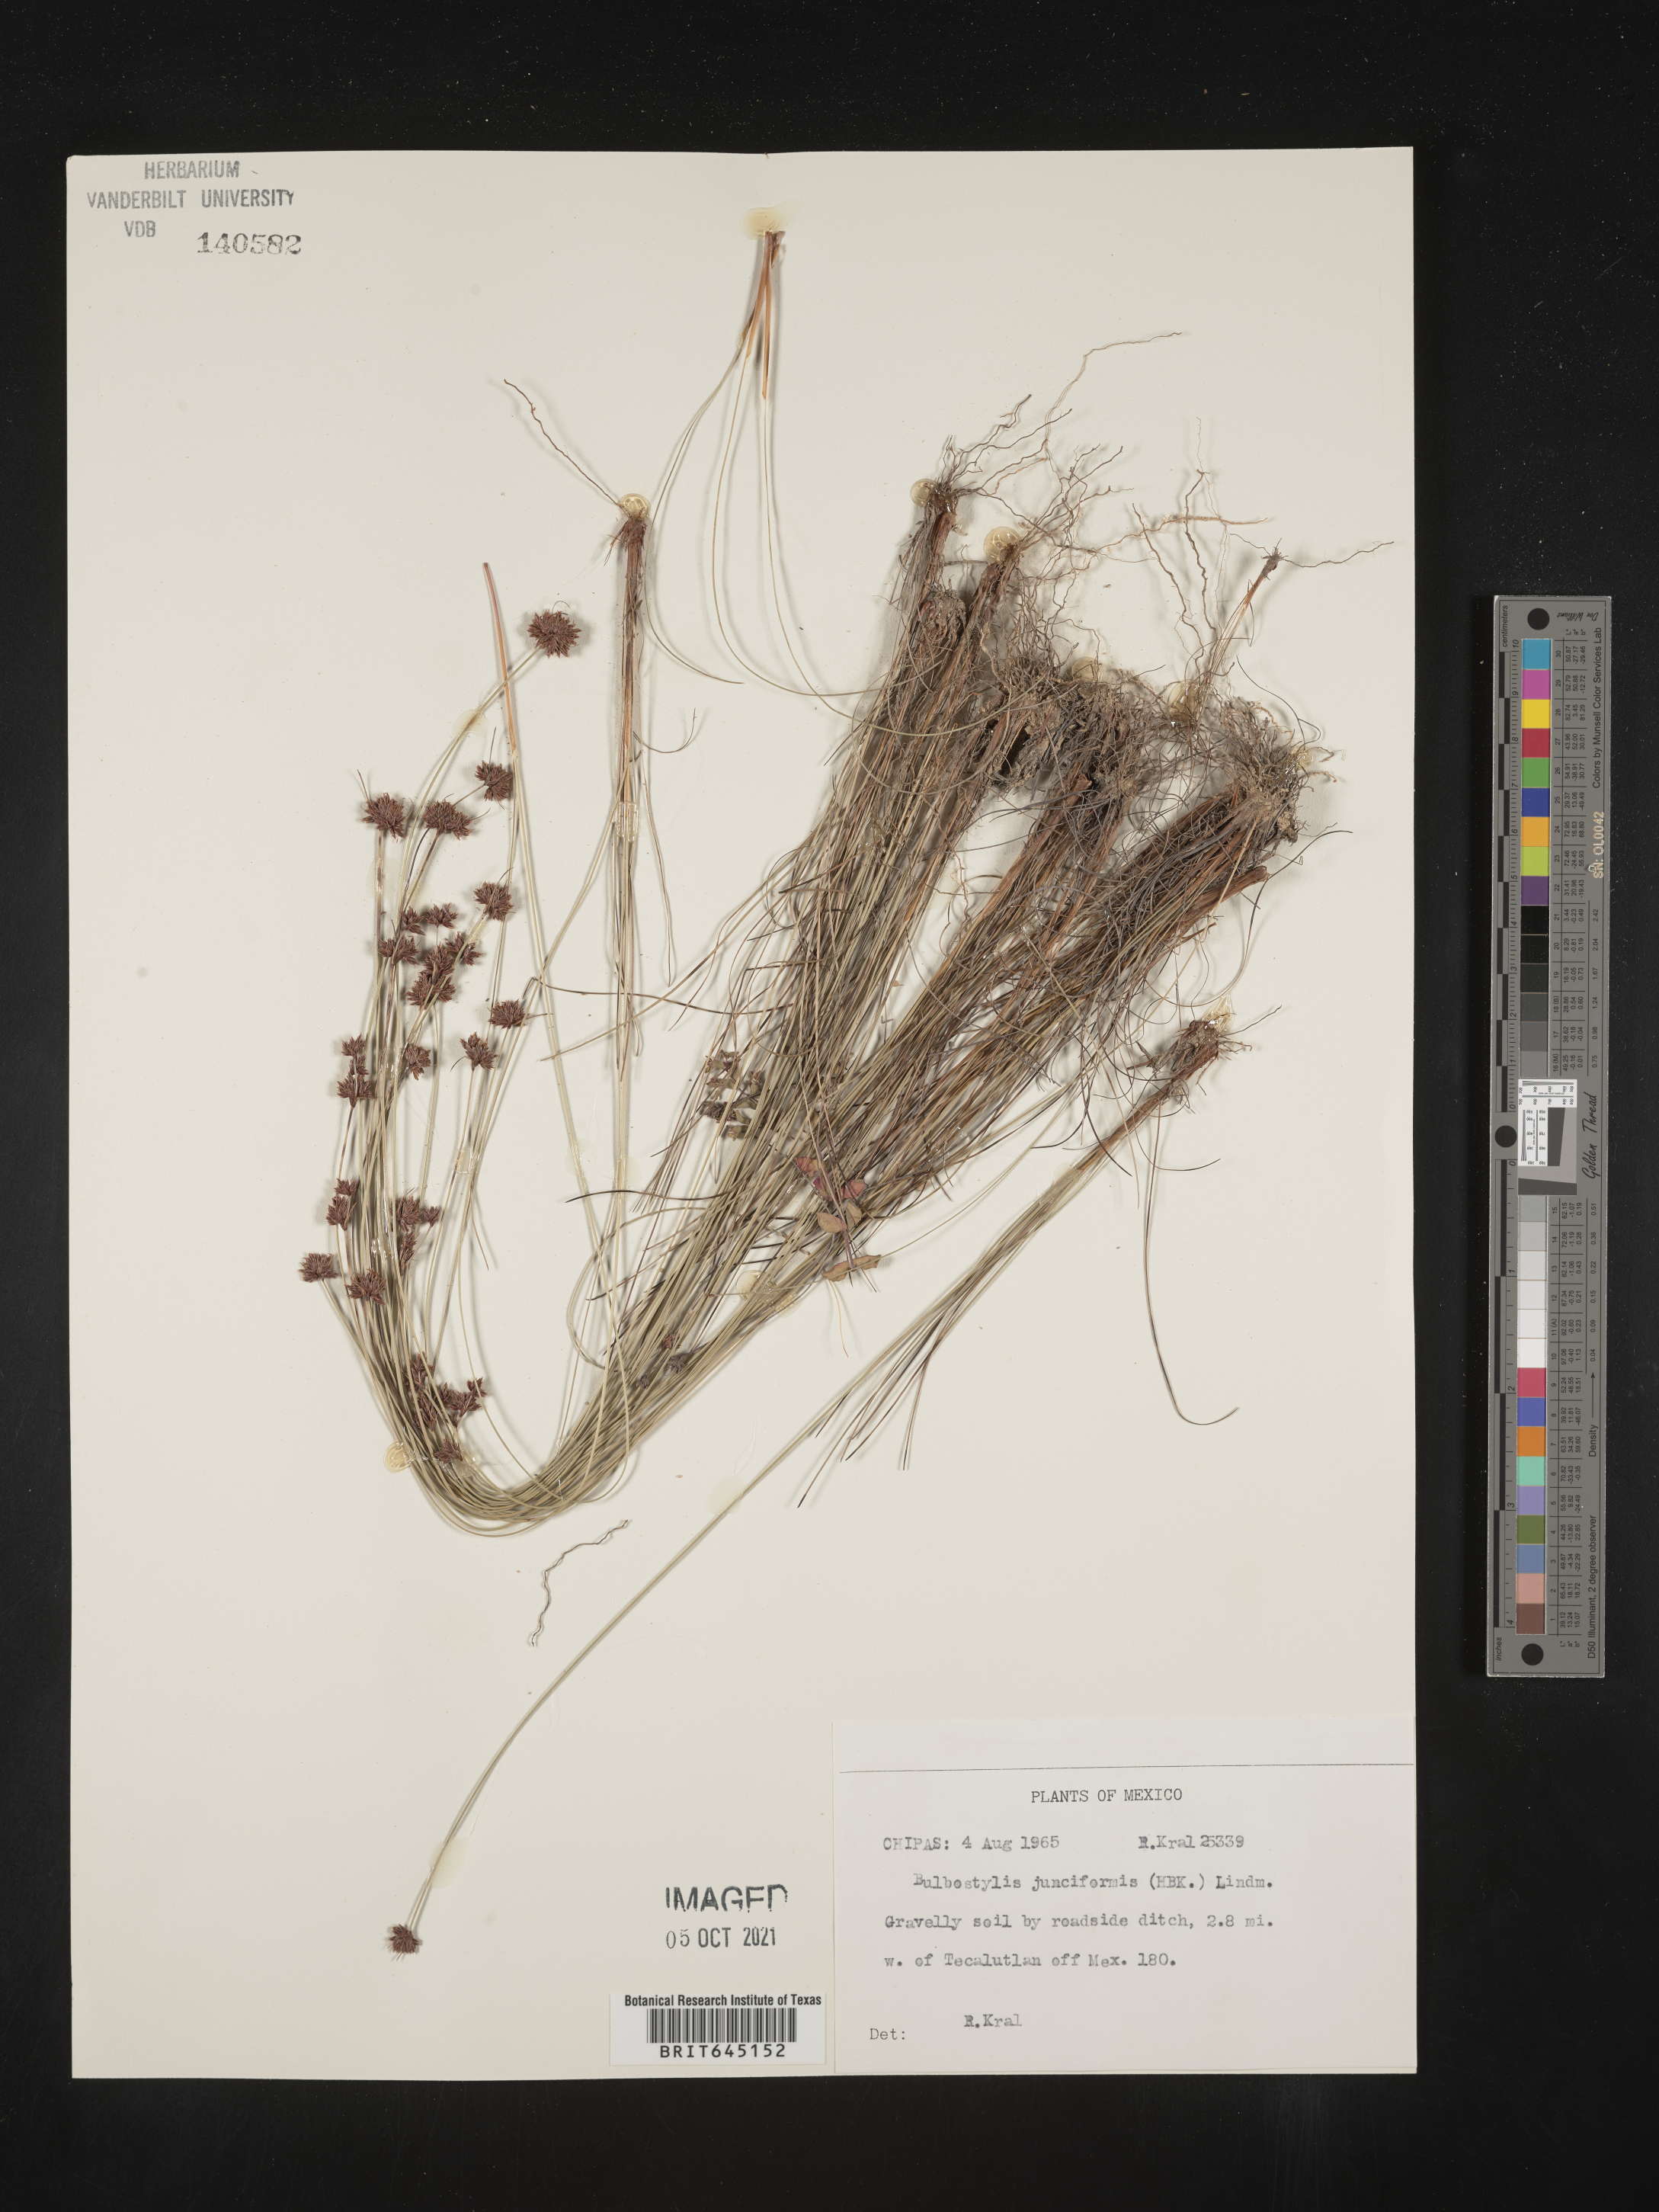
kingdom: Plantae
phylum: Tracheophyta
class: Liliopsida
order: Poales
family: Cyperaceae
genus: Bulbostylis
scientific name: Bulbostylis junciformis
